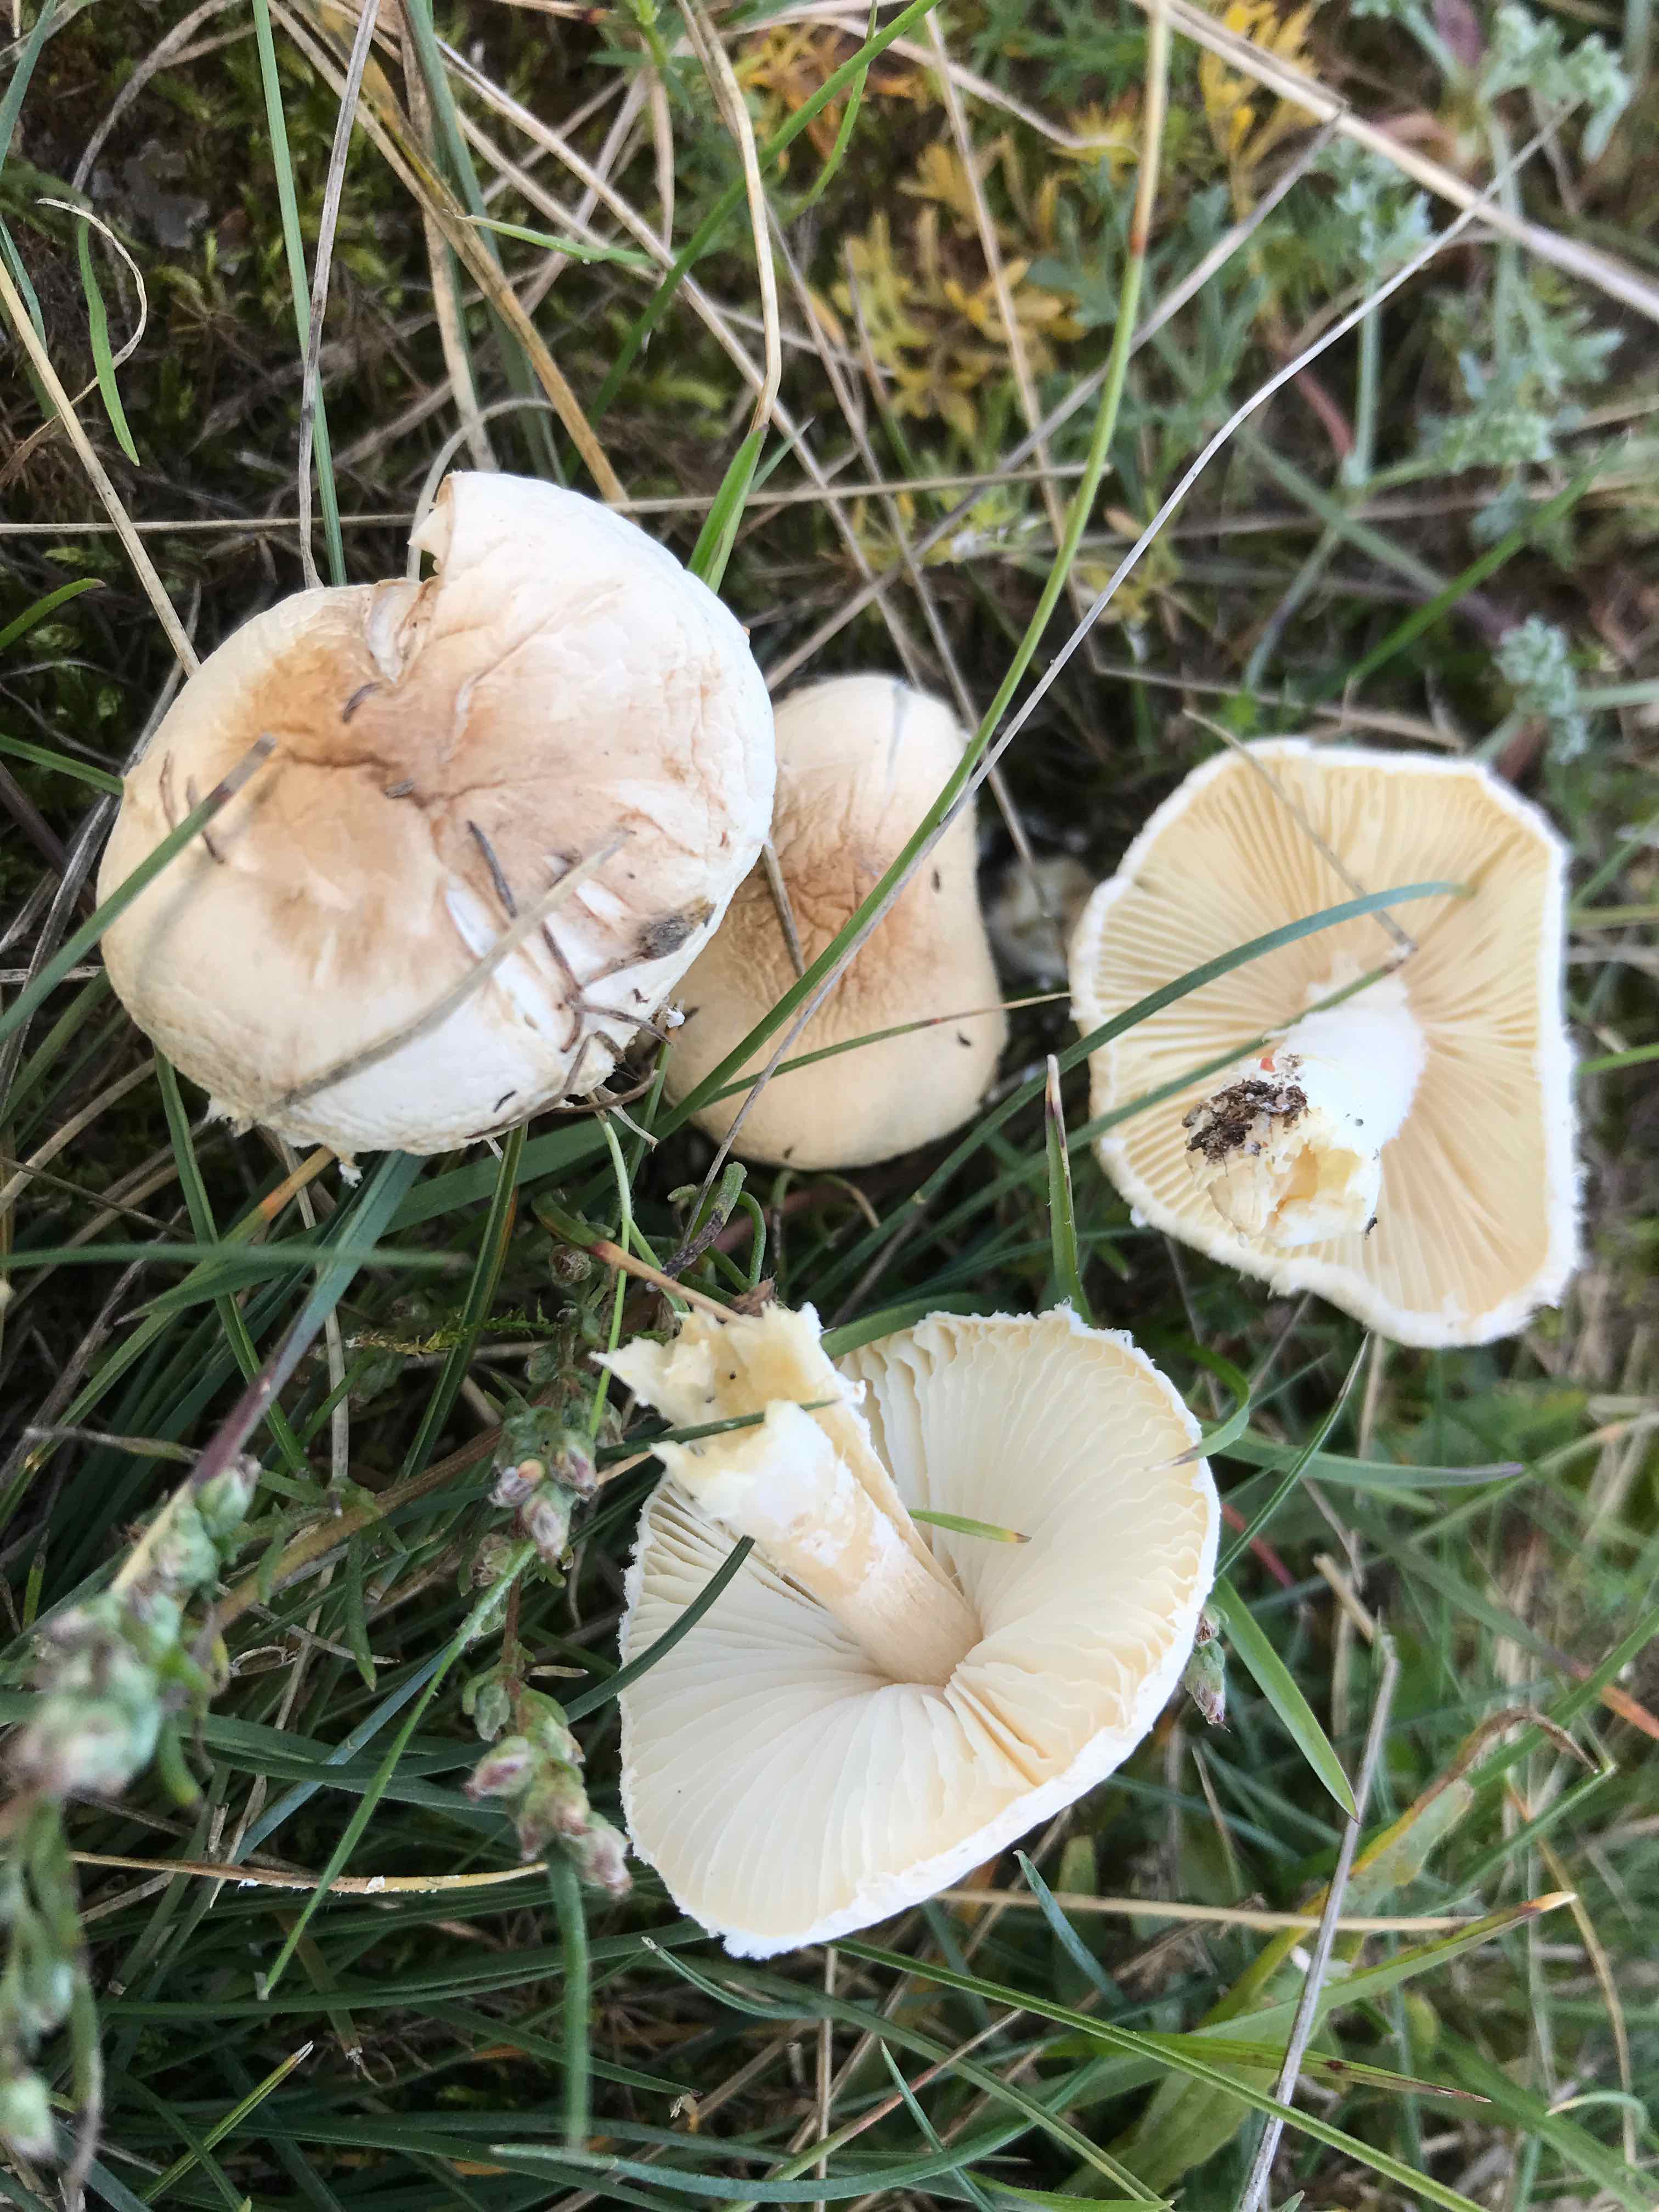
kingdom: Fungi
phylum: Basidiomycota
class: Agaricomycetes
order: Agaricales
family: Agaricaceae
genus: Lepiota
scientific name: Lepiota erminea
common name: hvid parasolhat
